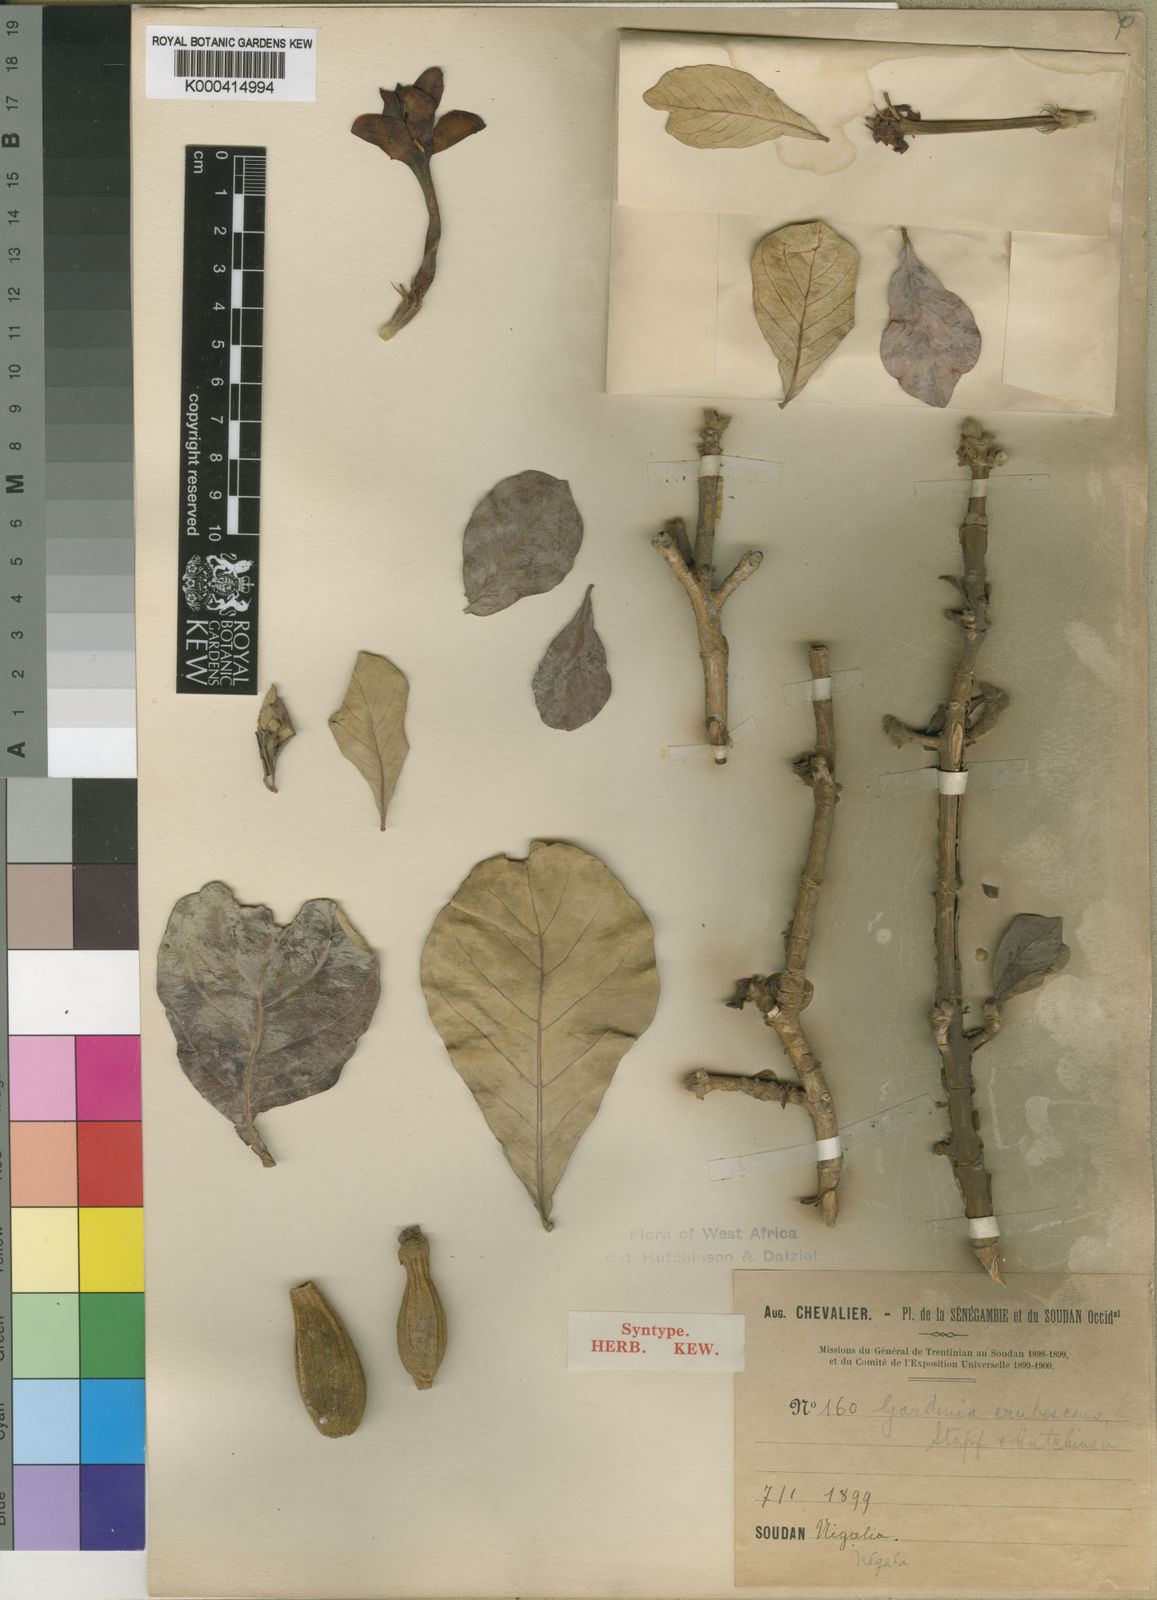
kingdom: Plantae
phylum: Tracheophyta
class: Magnoliopsida
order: Gentianales
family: Rubiaceae
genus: Gardenia
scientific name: Gardenia erubescens
